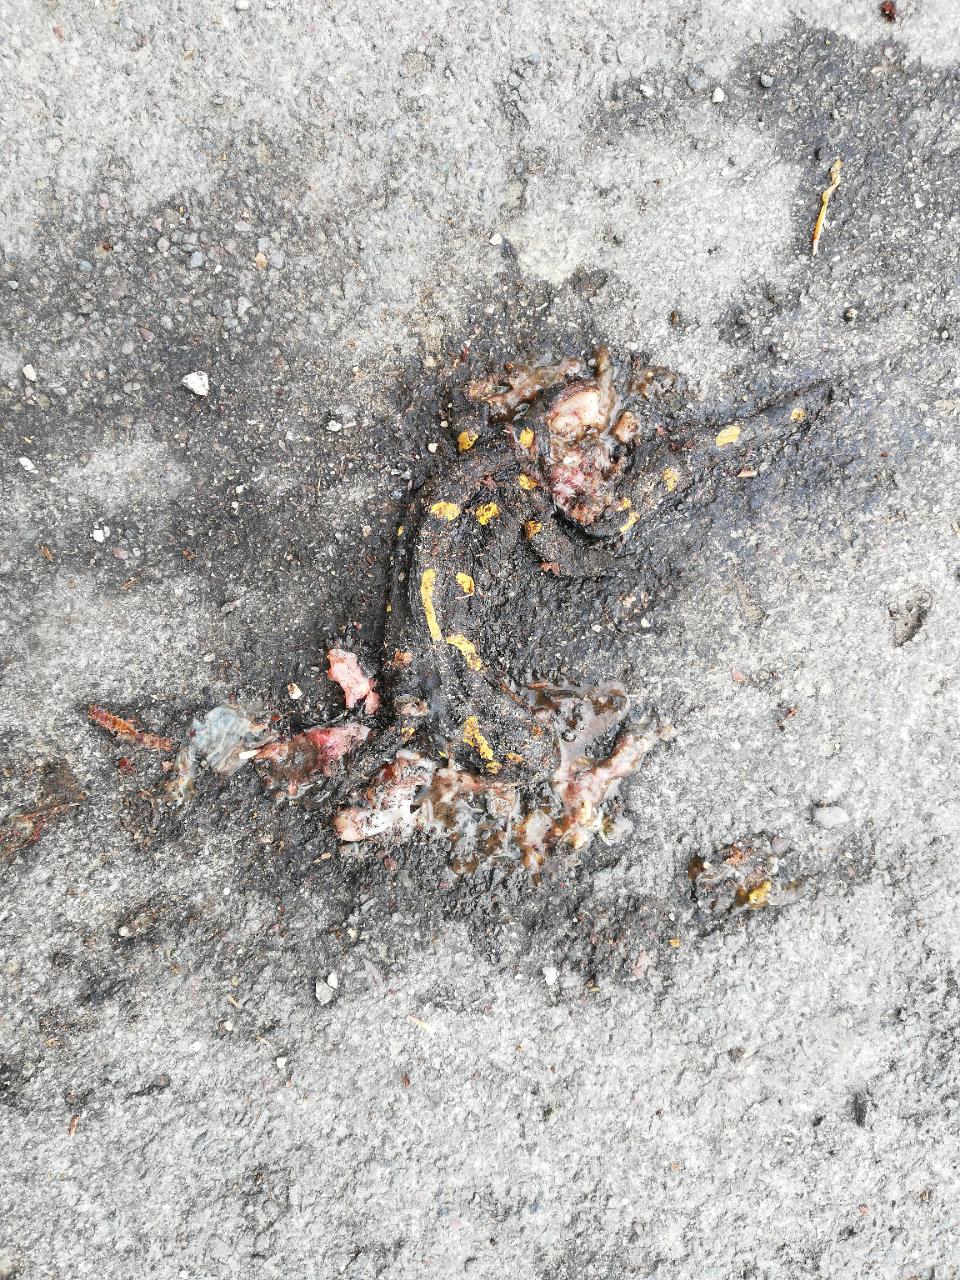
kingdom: Animalia
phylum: Chordata
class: Amphibia
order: Caudata
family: Salamandridae
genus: Salamandra
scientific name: Salamandra salamandra
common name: Fire salamander
